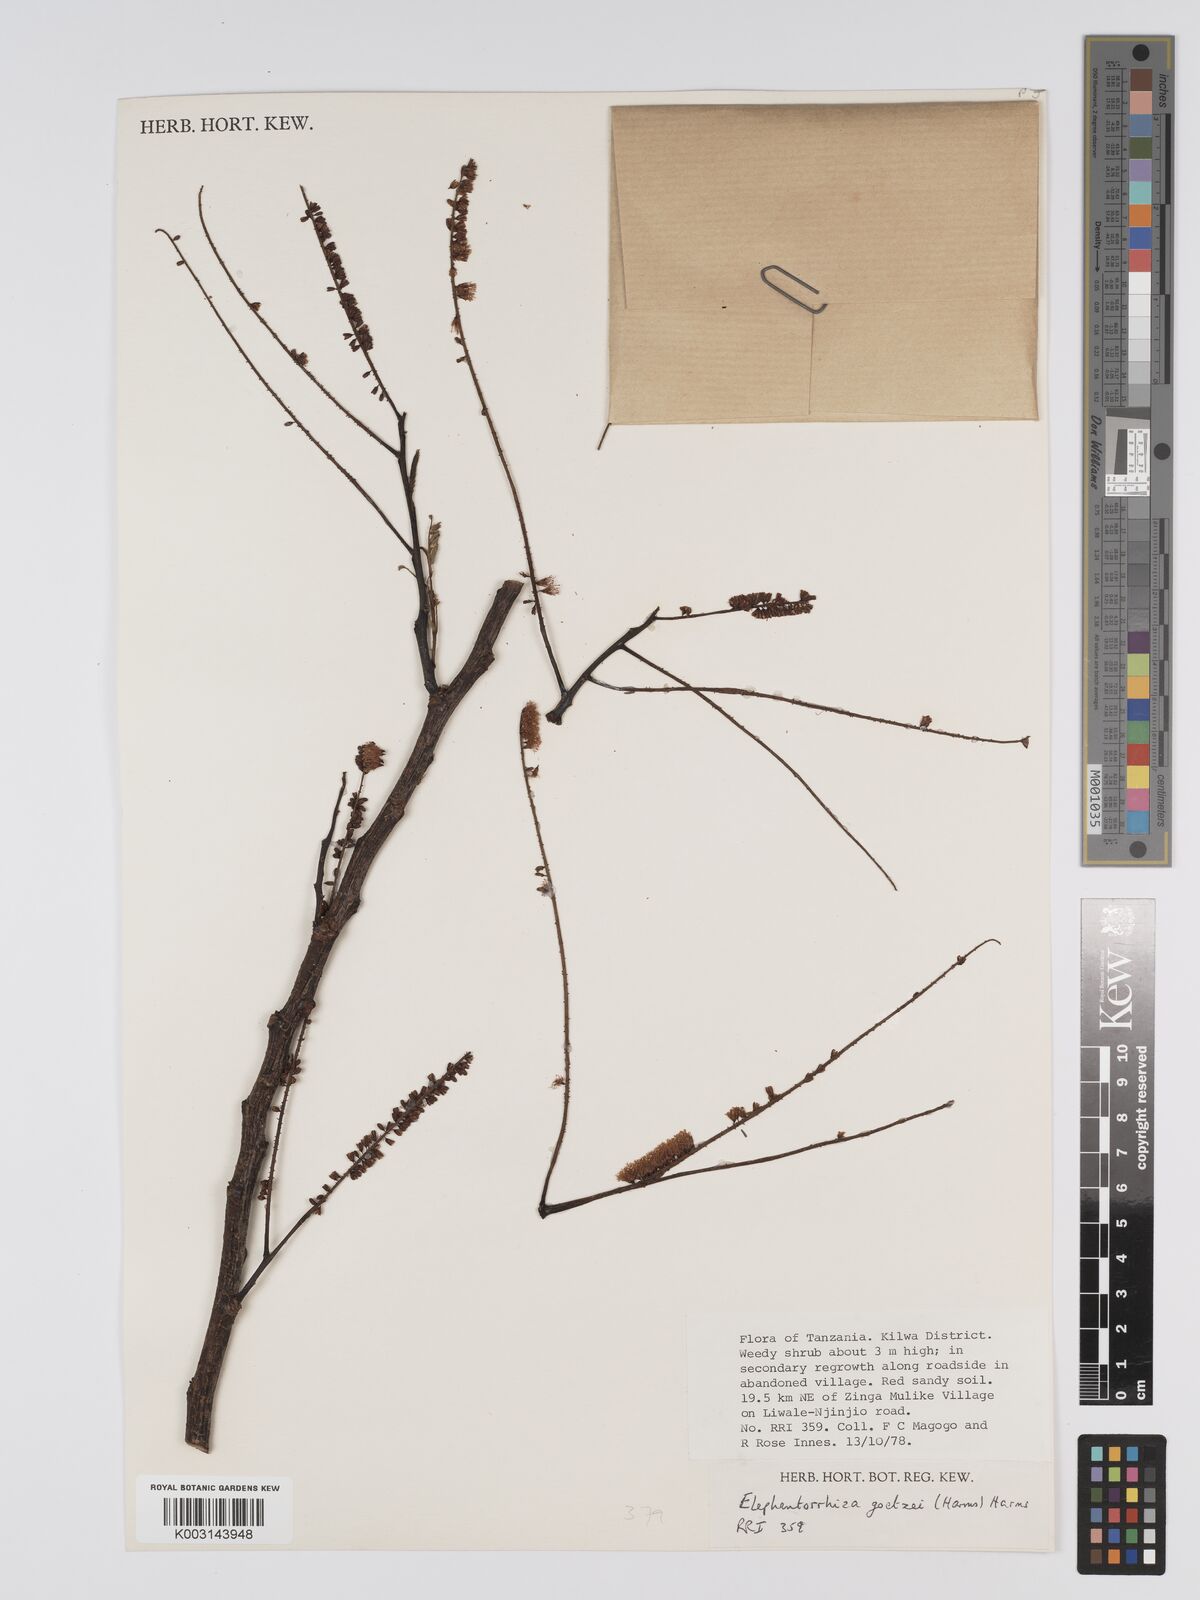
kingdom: Plantae
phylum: Tracheophyta
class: Magnoliopsida
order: Fabales
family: Fabaceae
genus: Elephantorrhiza
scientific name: Elephantorrhiza goetzei
